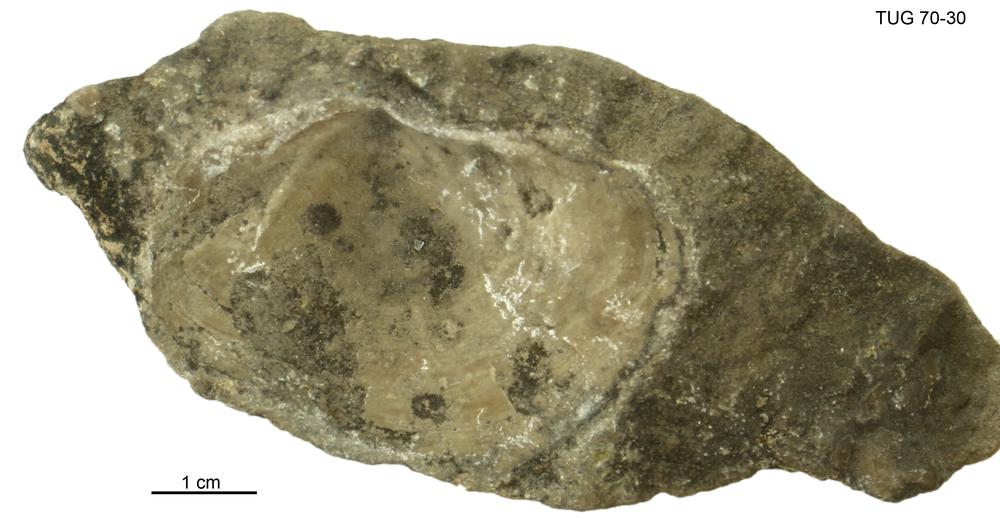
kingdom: Animalia
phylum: Mollusca
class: Bivalvia
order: Lucinida
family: Lucinidae
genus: Illionia
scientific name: Illionia Lucina prisca
